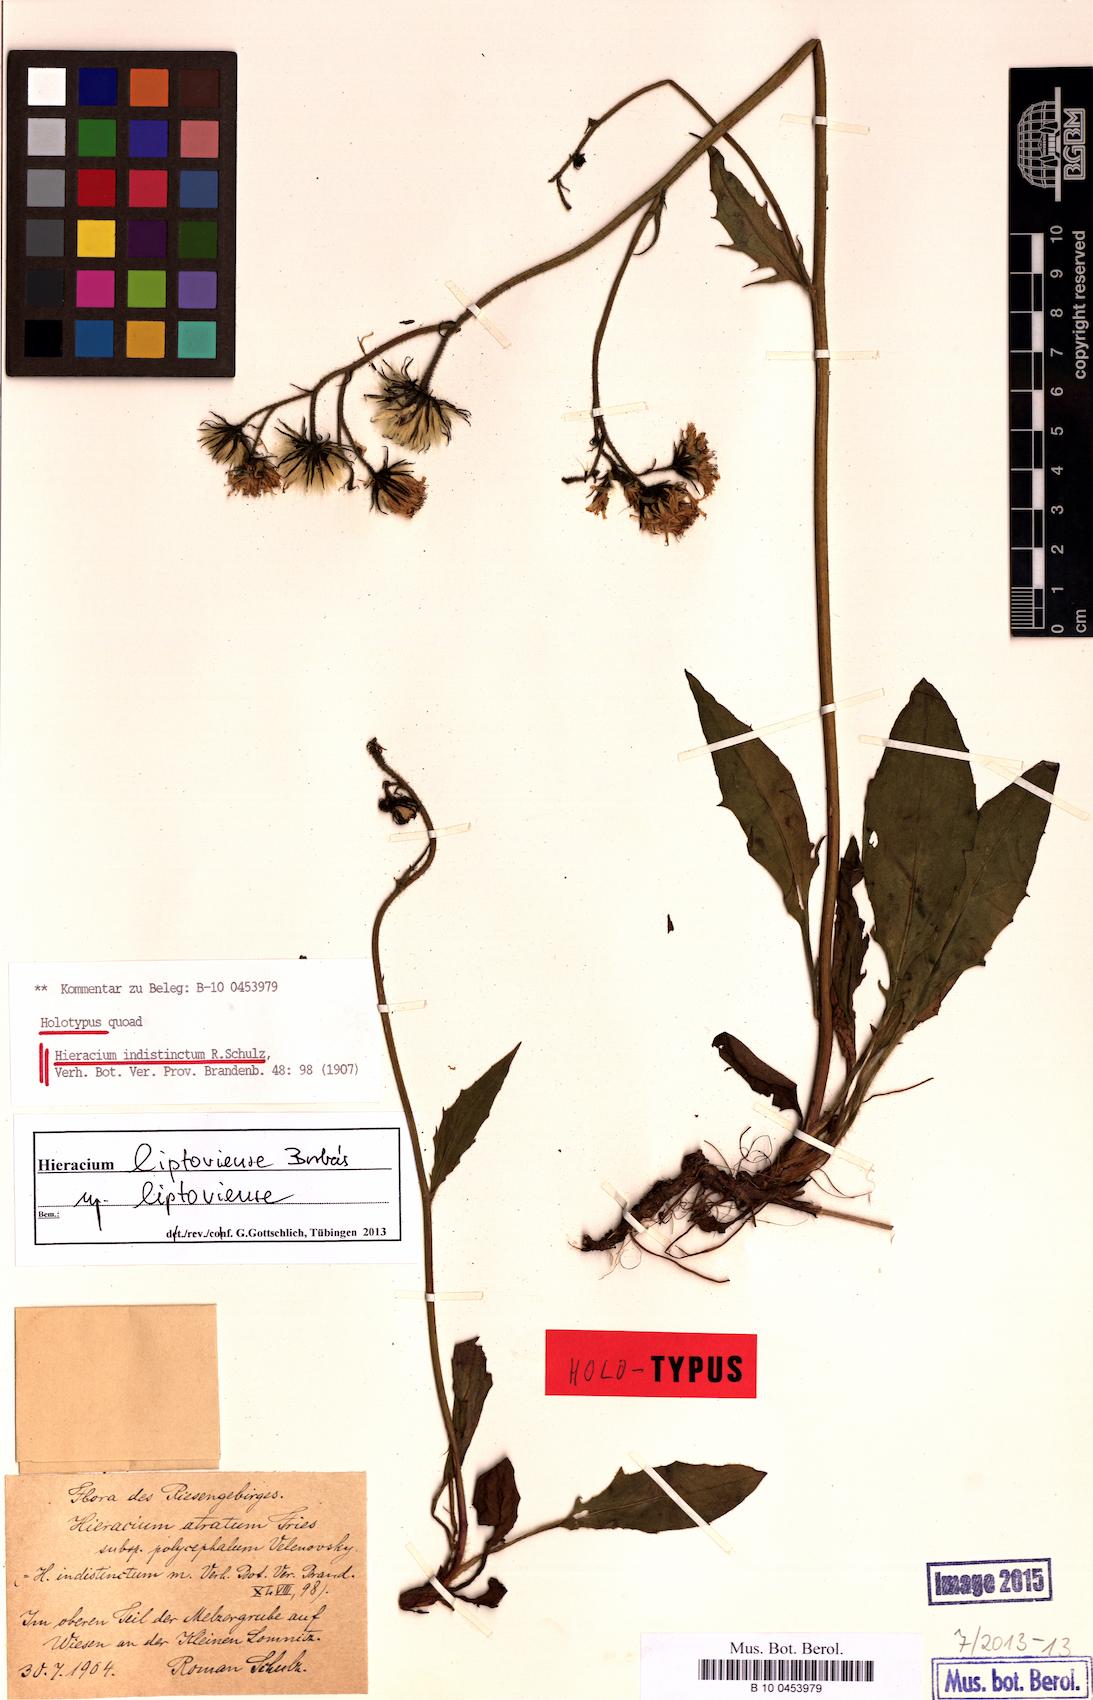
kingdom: Plantae
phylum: Tracheophyta
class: Magnoliopsida
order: Asterales
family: Asteraceae
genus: Hieracium
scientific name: Hieracium liptoviense
